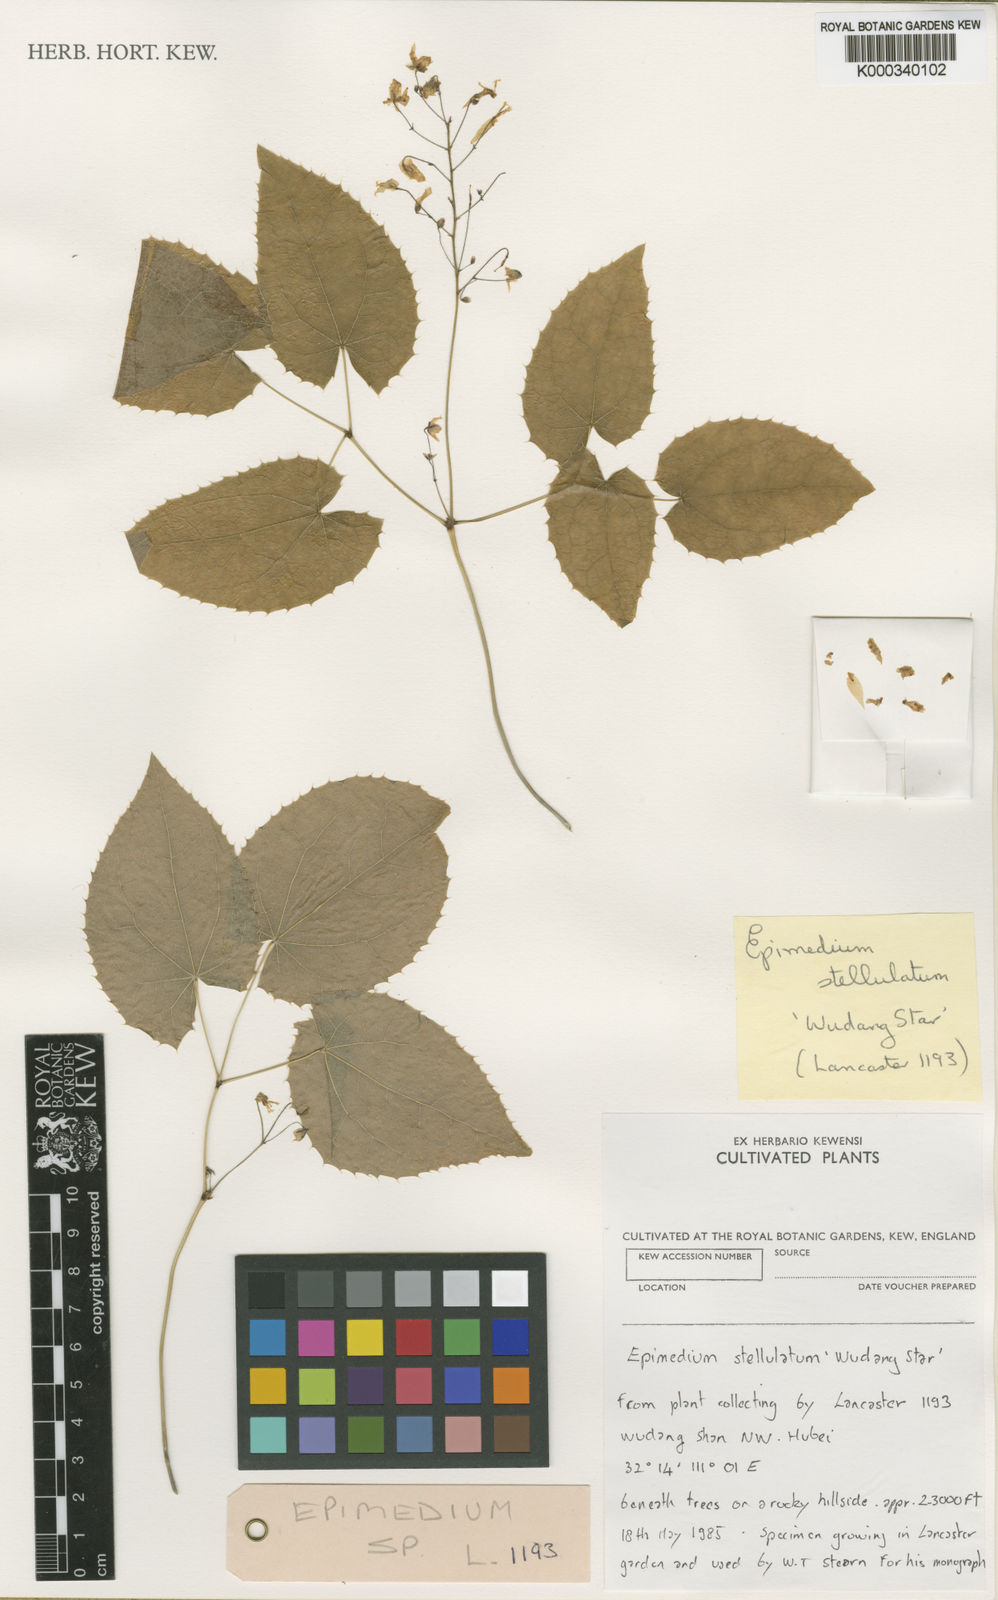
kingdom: Plantae
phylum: Tracheophyta
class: Magnoliopsida
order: Ranunculales
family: Berberidaceae
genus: Epimedium
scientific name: Epimedium stellulatum
